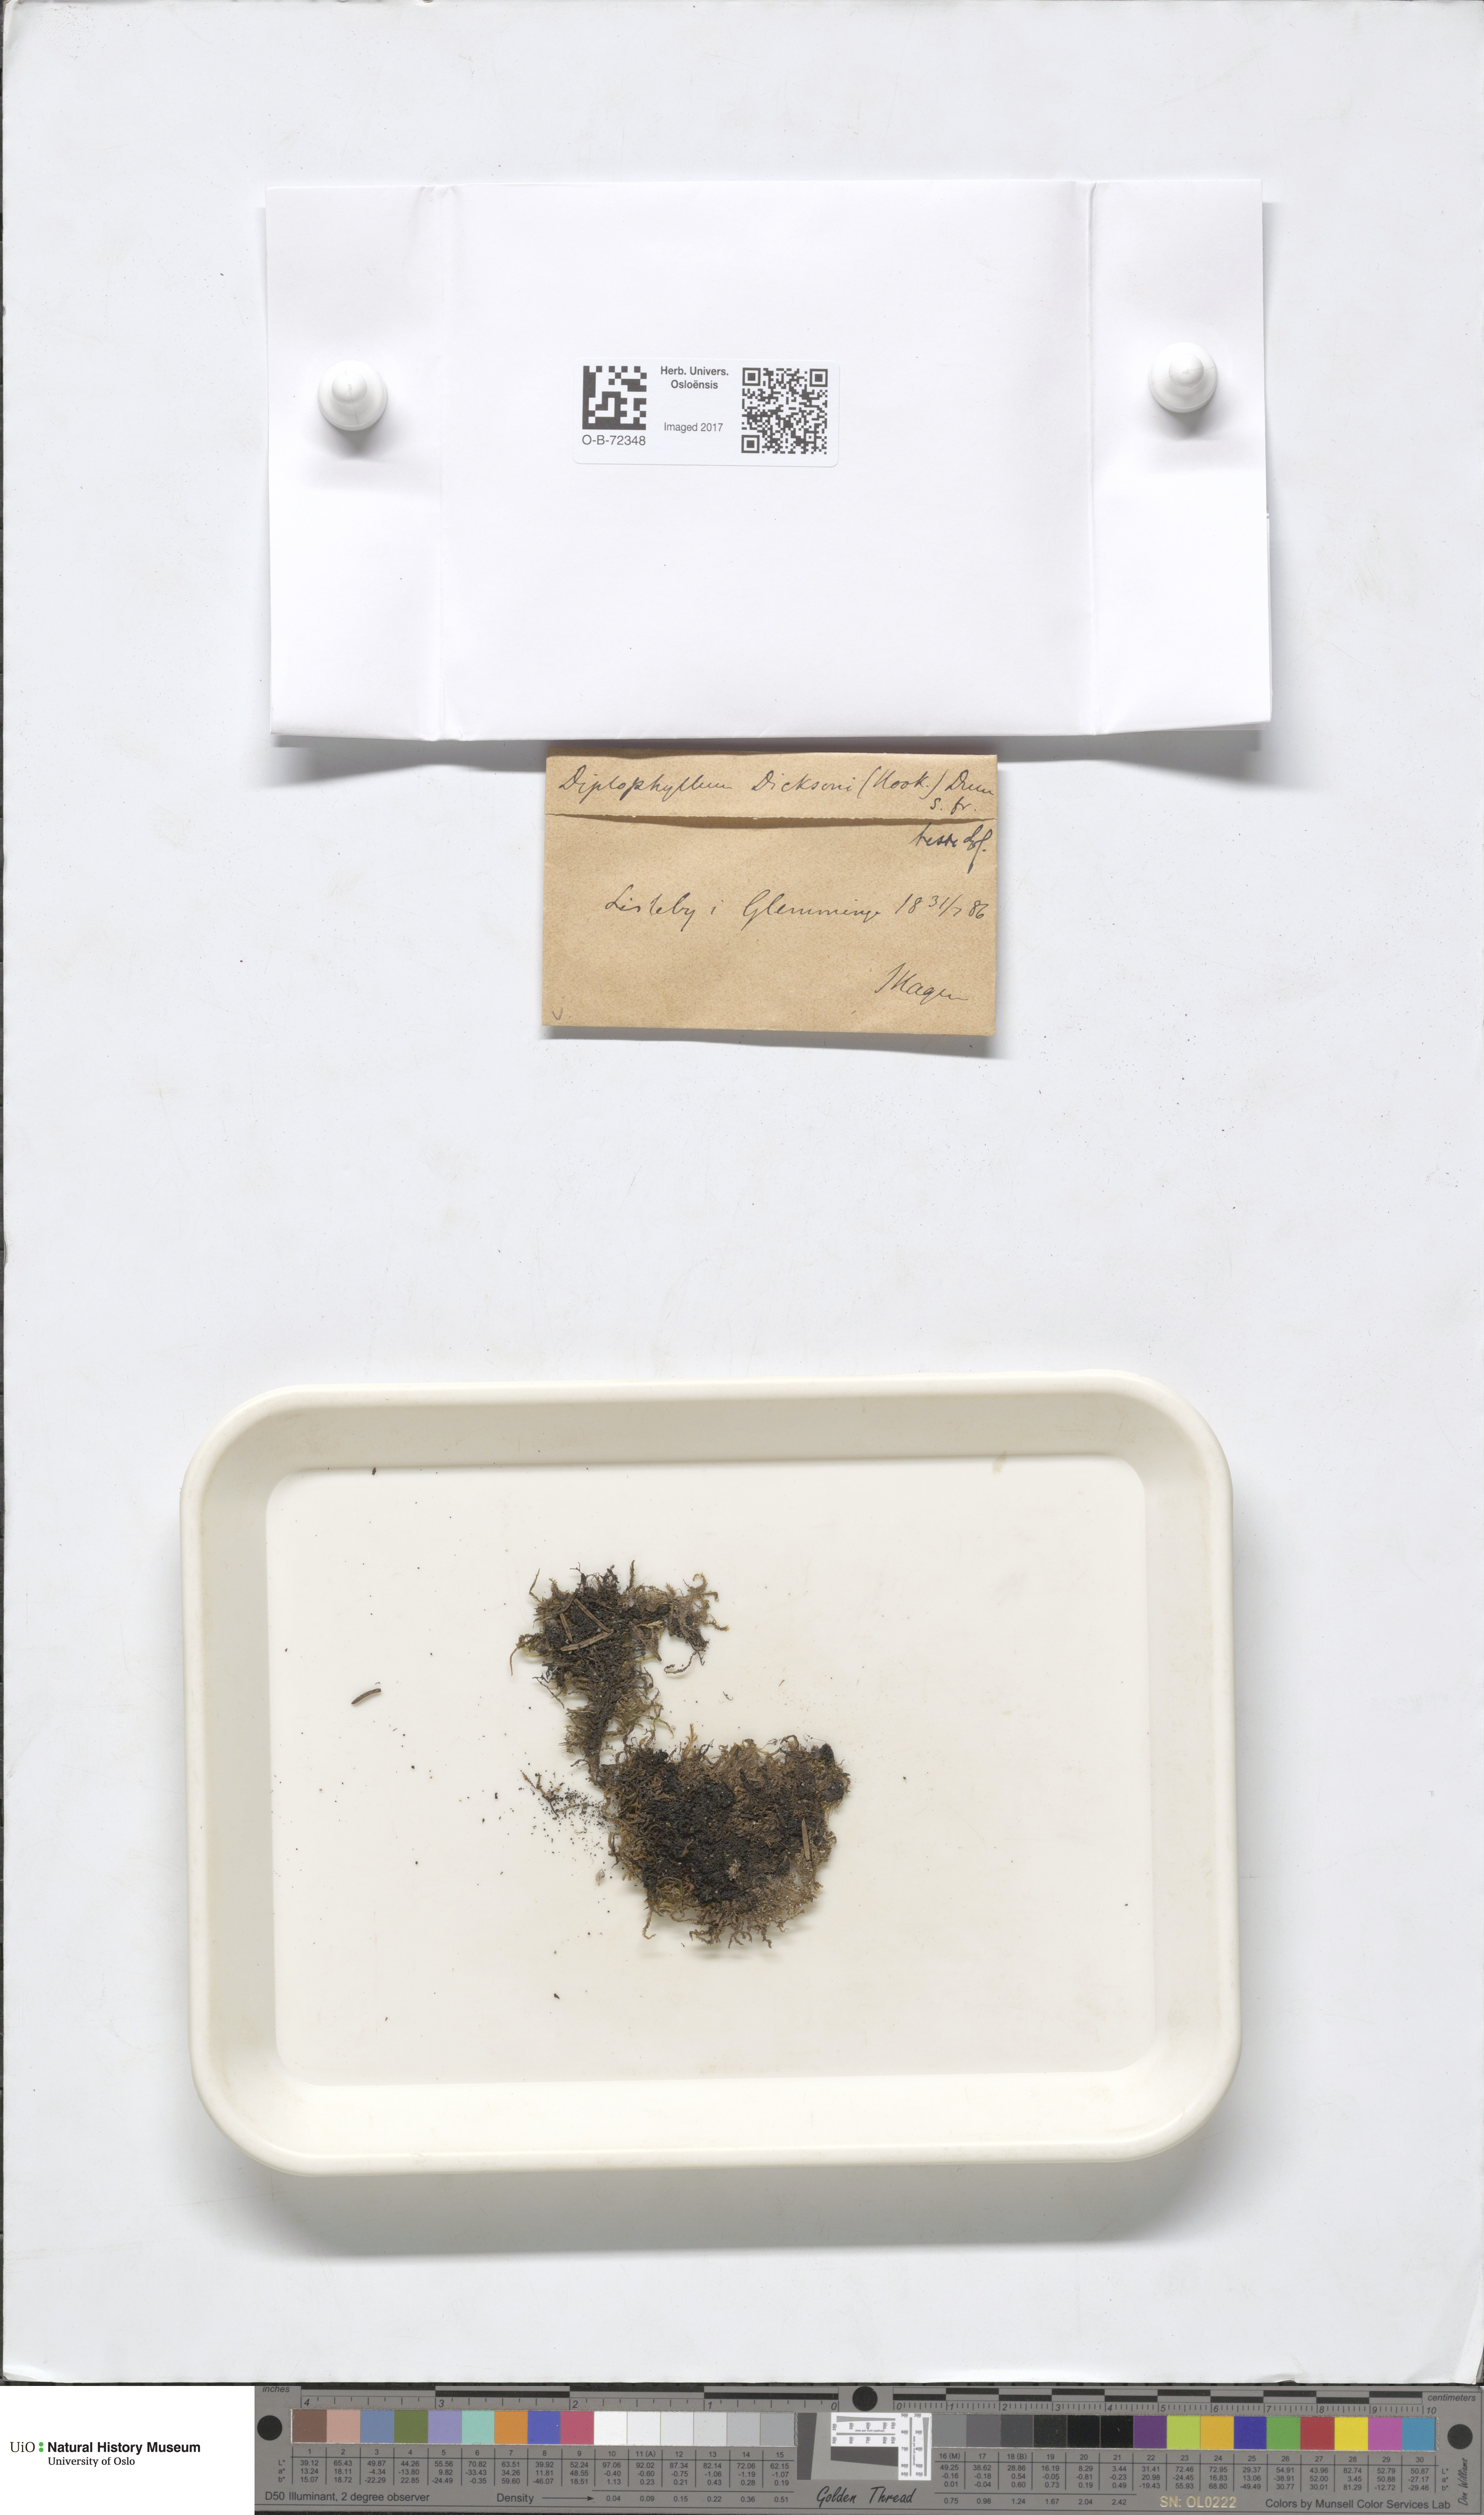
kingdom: Plantae
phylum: Marchantiophyta
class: Jungermanniopsida
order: Jungermanniales
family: Scapaniaceae
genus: Douinia
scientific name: Douinia ovata
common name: Waxy earwort
